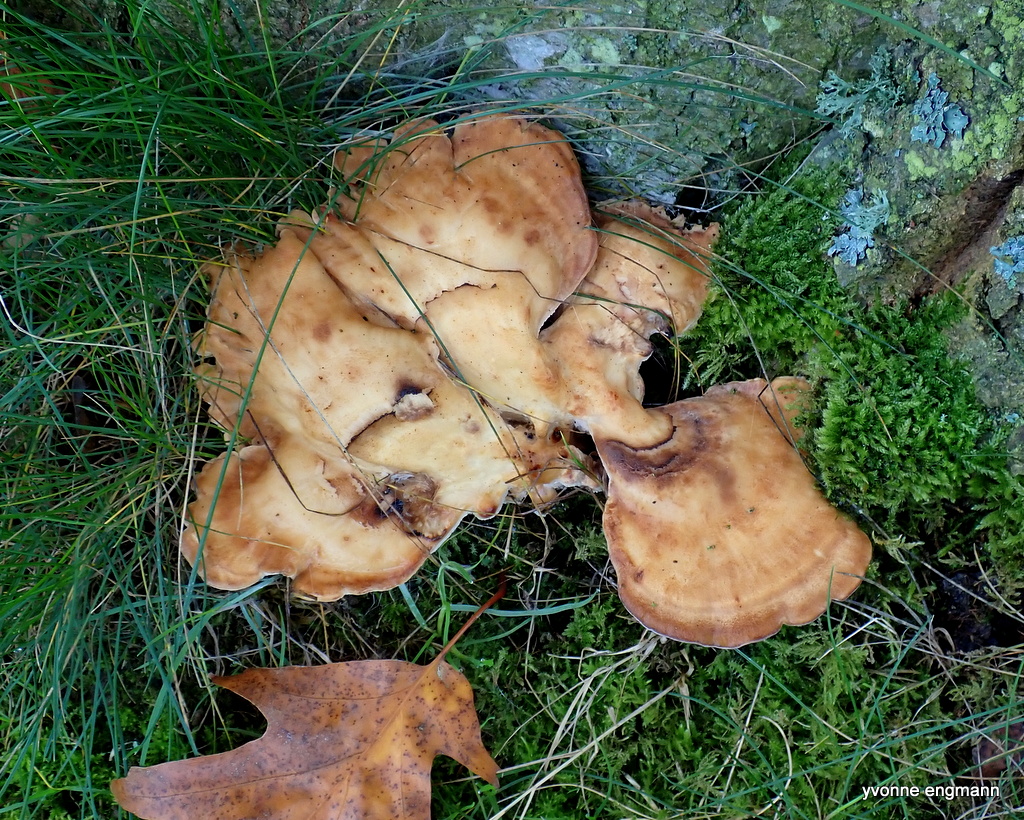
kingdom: Fungi
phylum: Basidiomycota
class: Agaricomycetes
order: Polyporales
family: Meripilaceae
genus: Meripilus
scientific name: Meripilus giganteus
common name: kæmpeporesvamp
